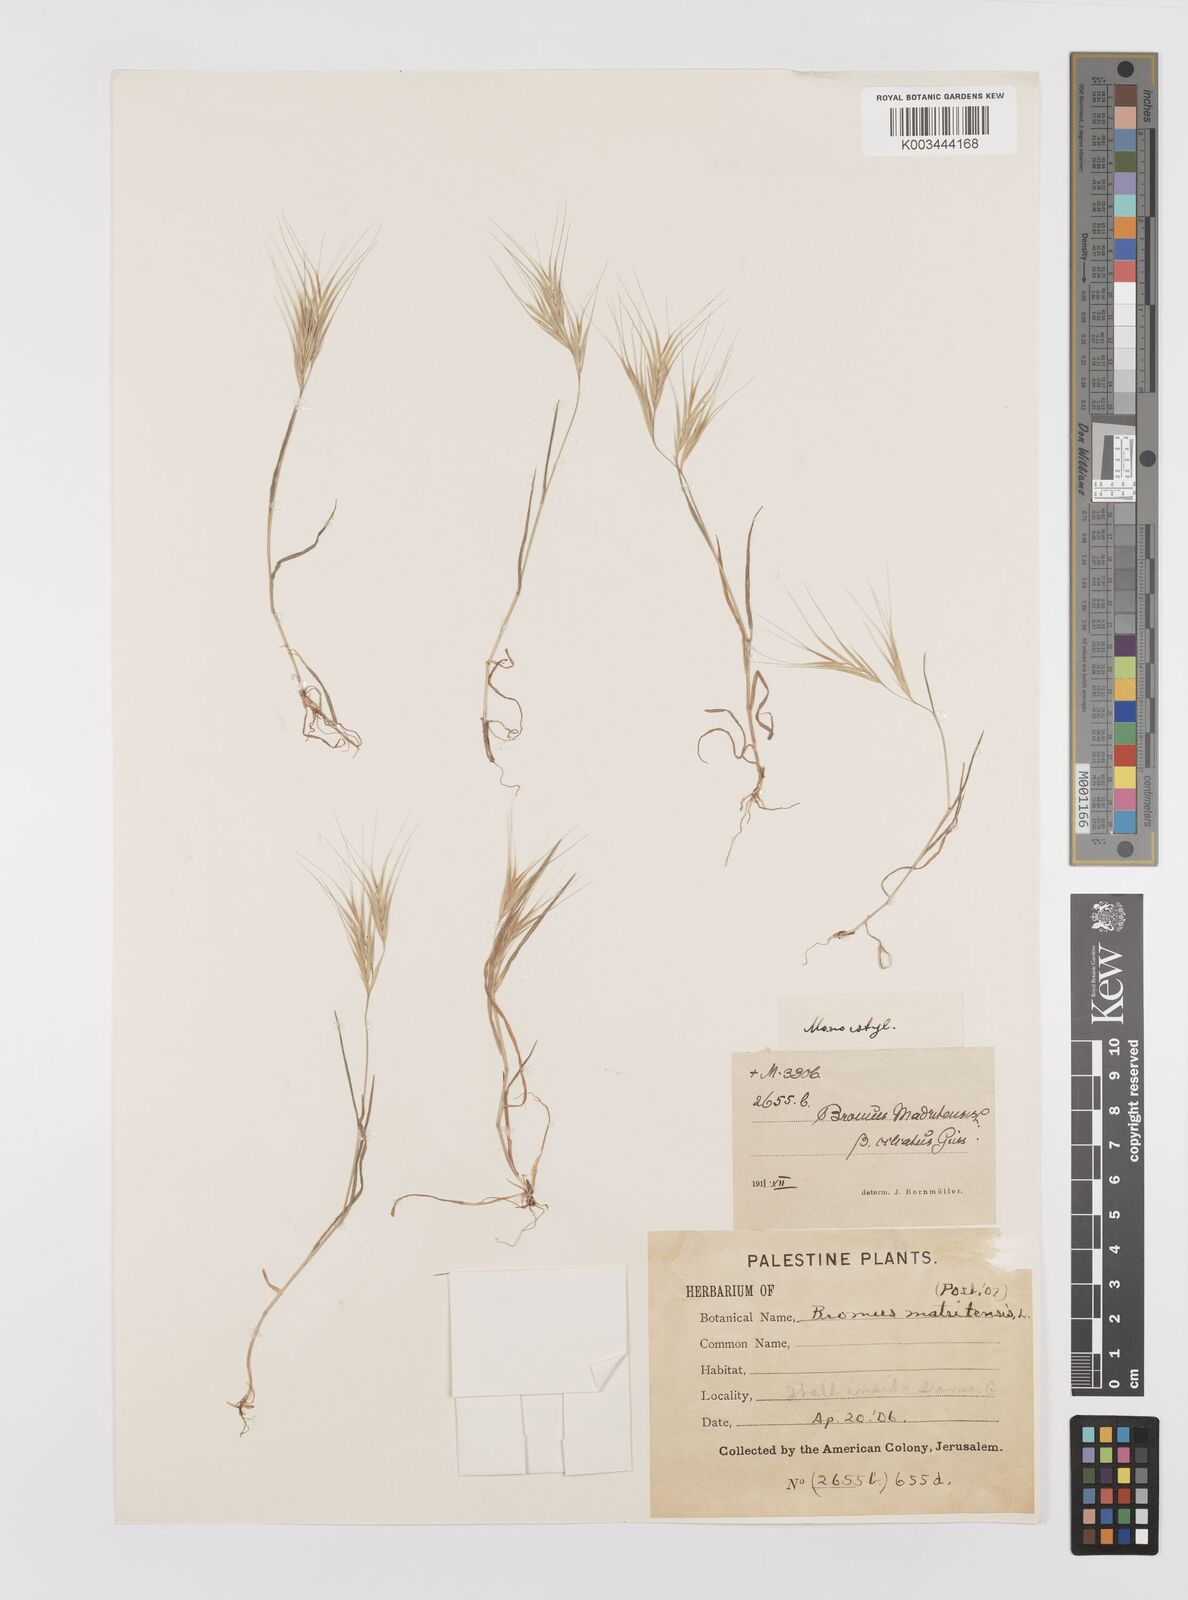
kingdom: Plantae
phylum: Tracheophyta
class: Liliopsida
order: Poales
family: Poaceae
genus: Bromus
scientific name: Bromus madritensis
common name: Compact brome
